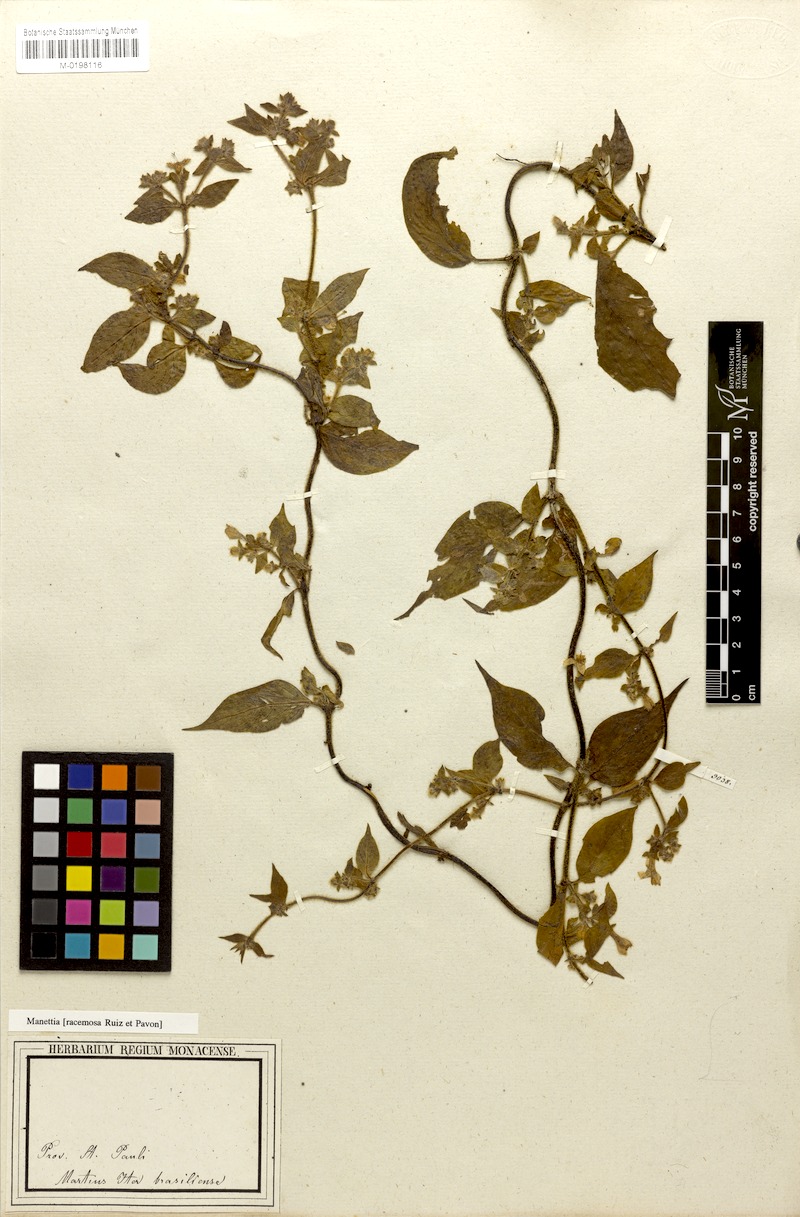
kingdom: Plantae
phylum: Tracheophyta
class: Magnoliopsida
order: Gentianales
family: Rubiaceae
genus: Manettia
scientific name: Manettia racemosa
